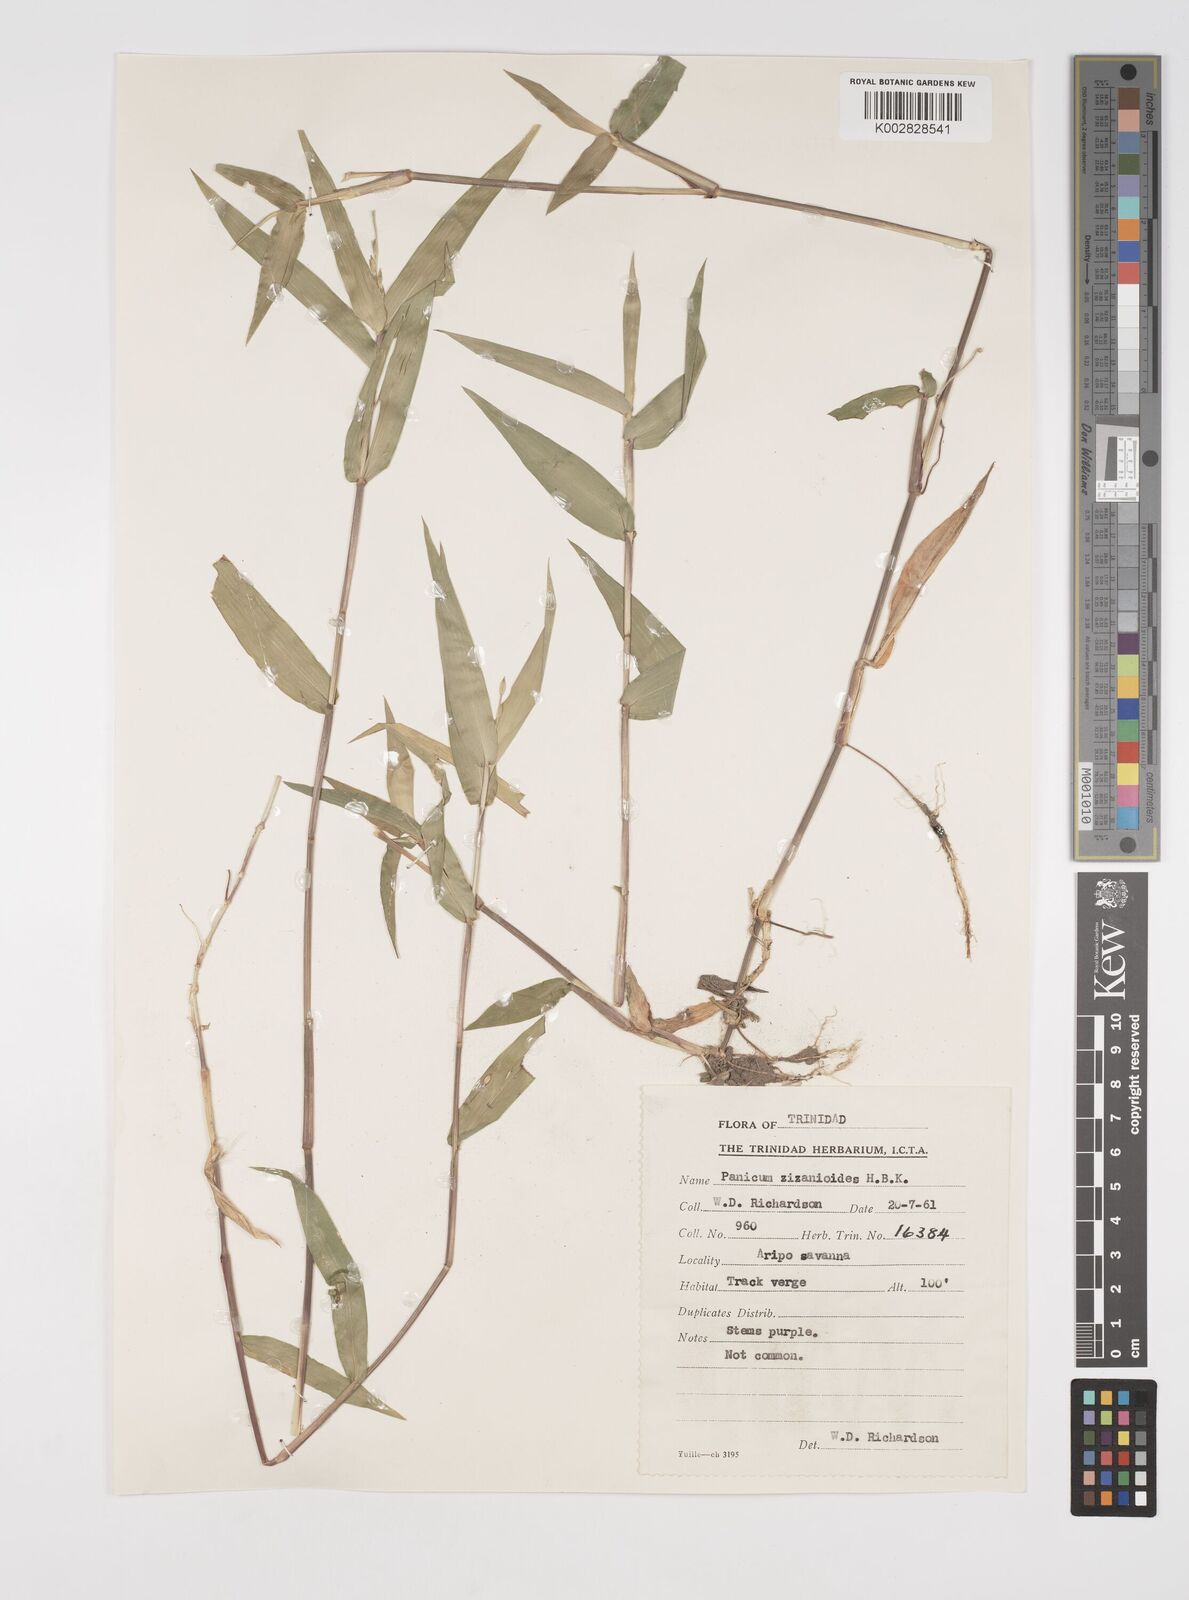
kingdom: Plantae
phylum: Tracheophyta
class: Liliopsida
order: Poales
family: Poaceae
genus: Acroceras
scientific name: Acroceras zizanioides
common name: Oat grass
